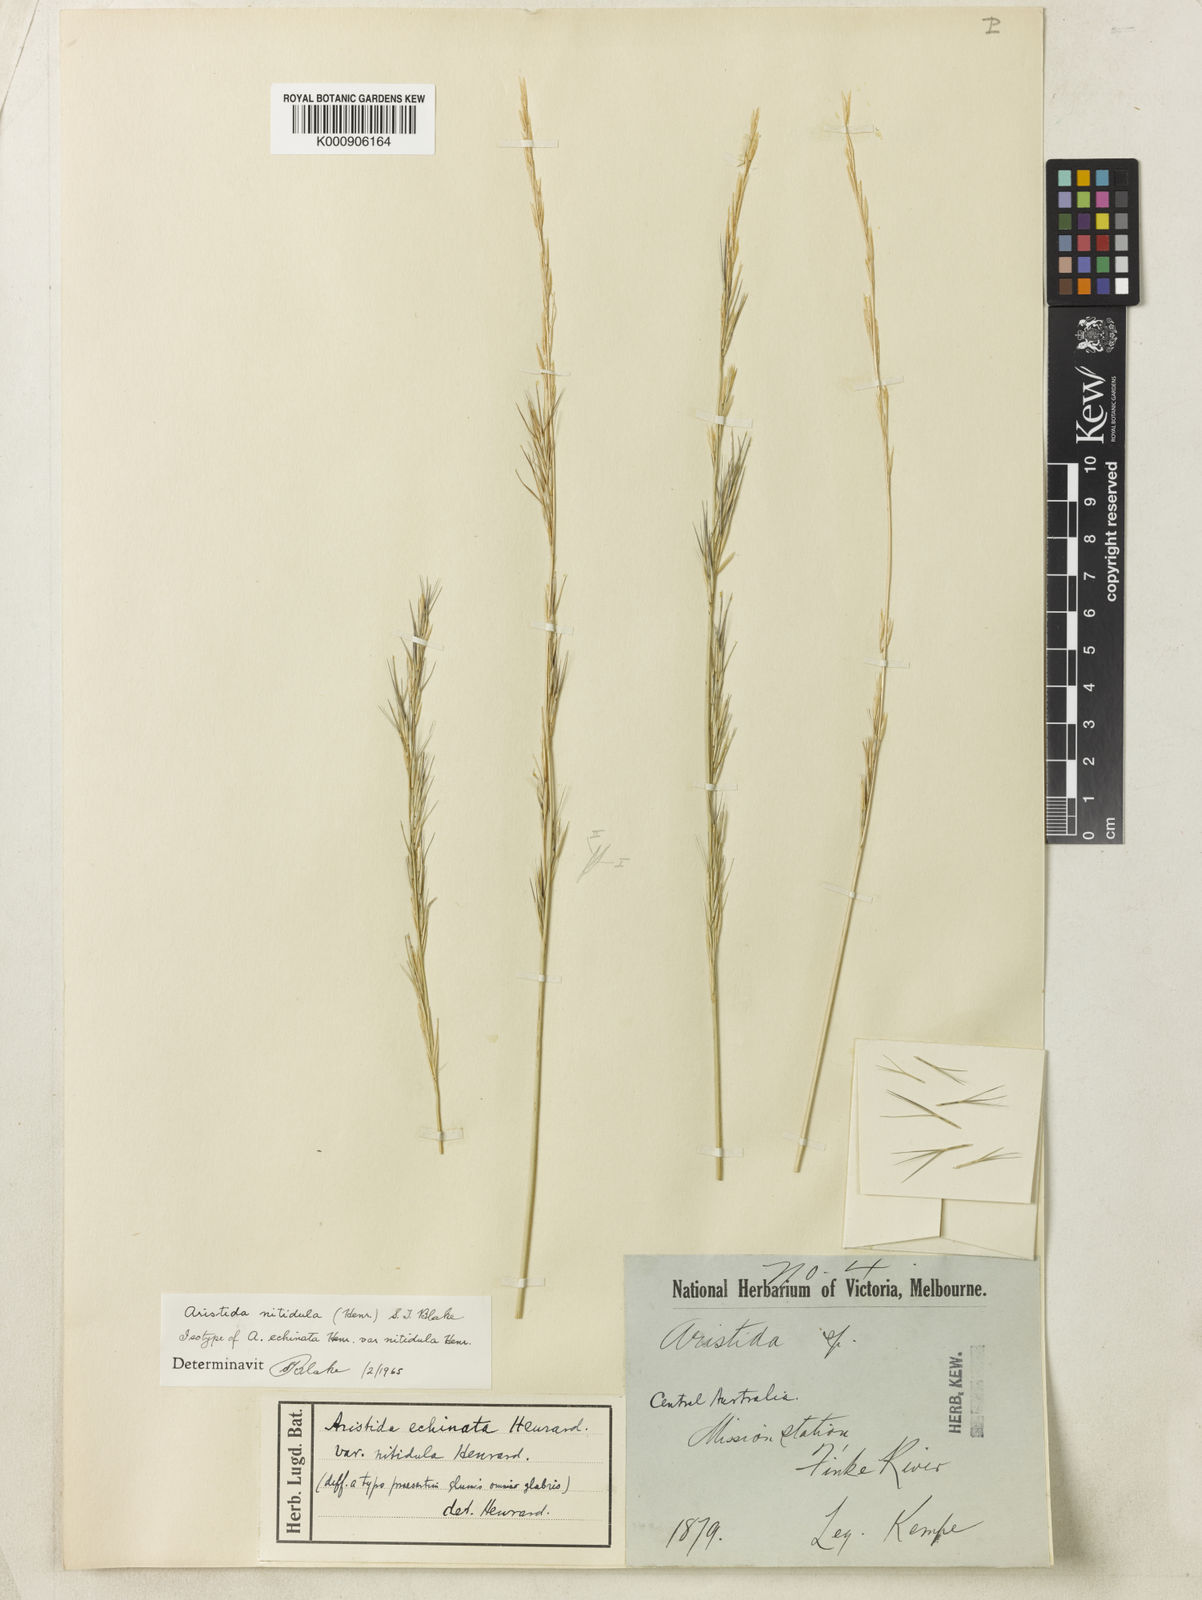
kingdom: Plantae
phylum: Tracheophyta
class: Liliopsida
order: Poales
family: Poaceae
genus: Aristida
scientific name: Aristida nitidula
